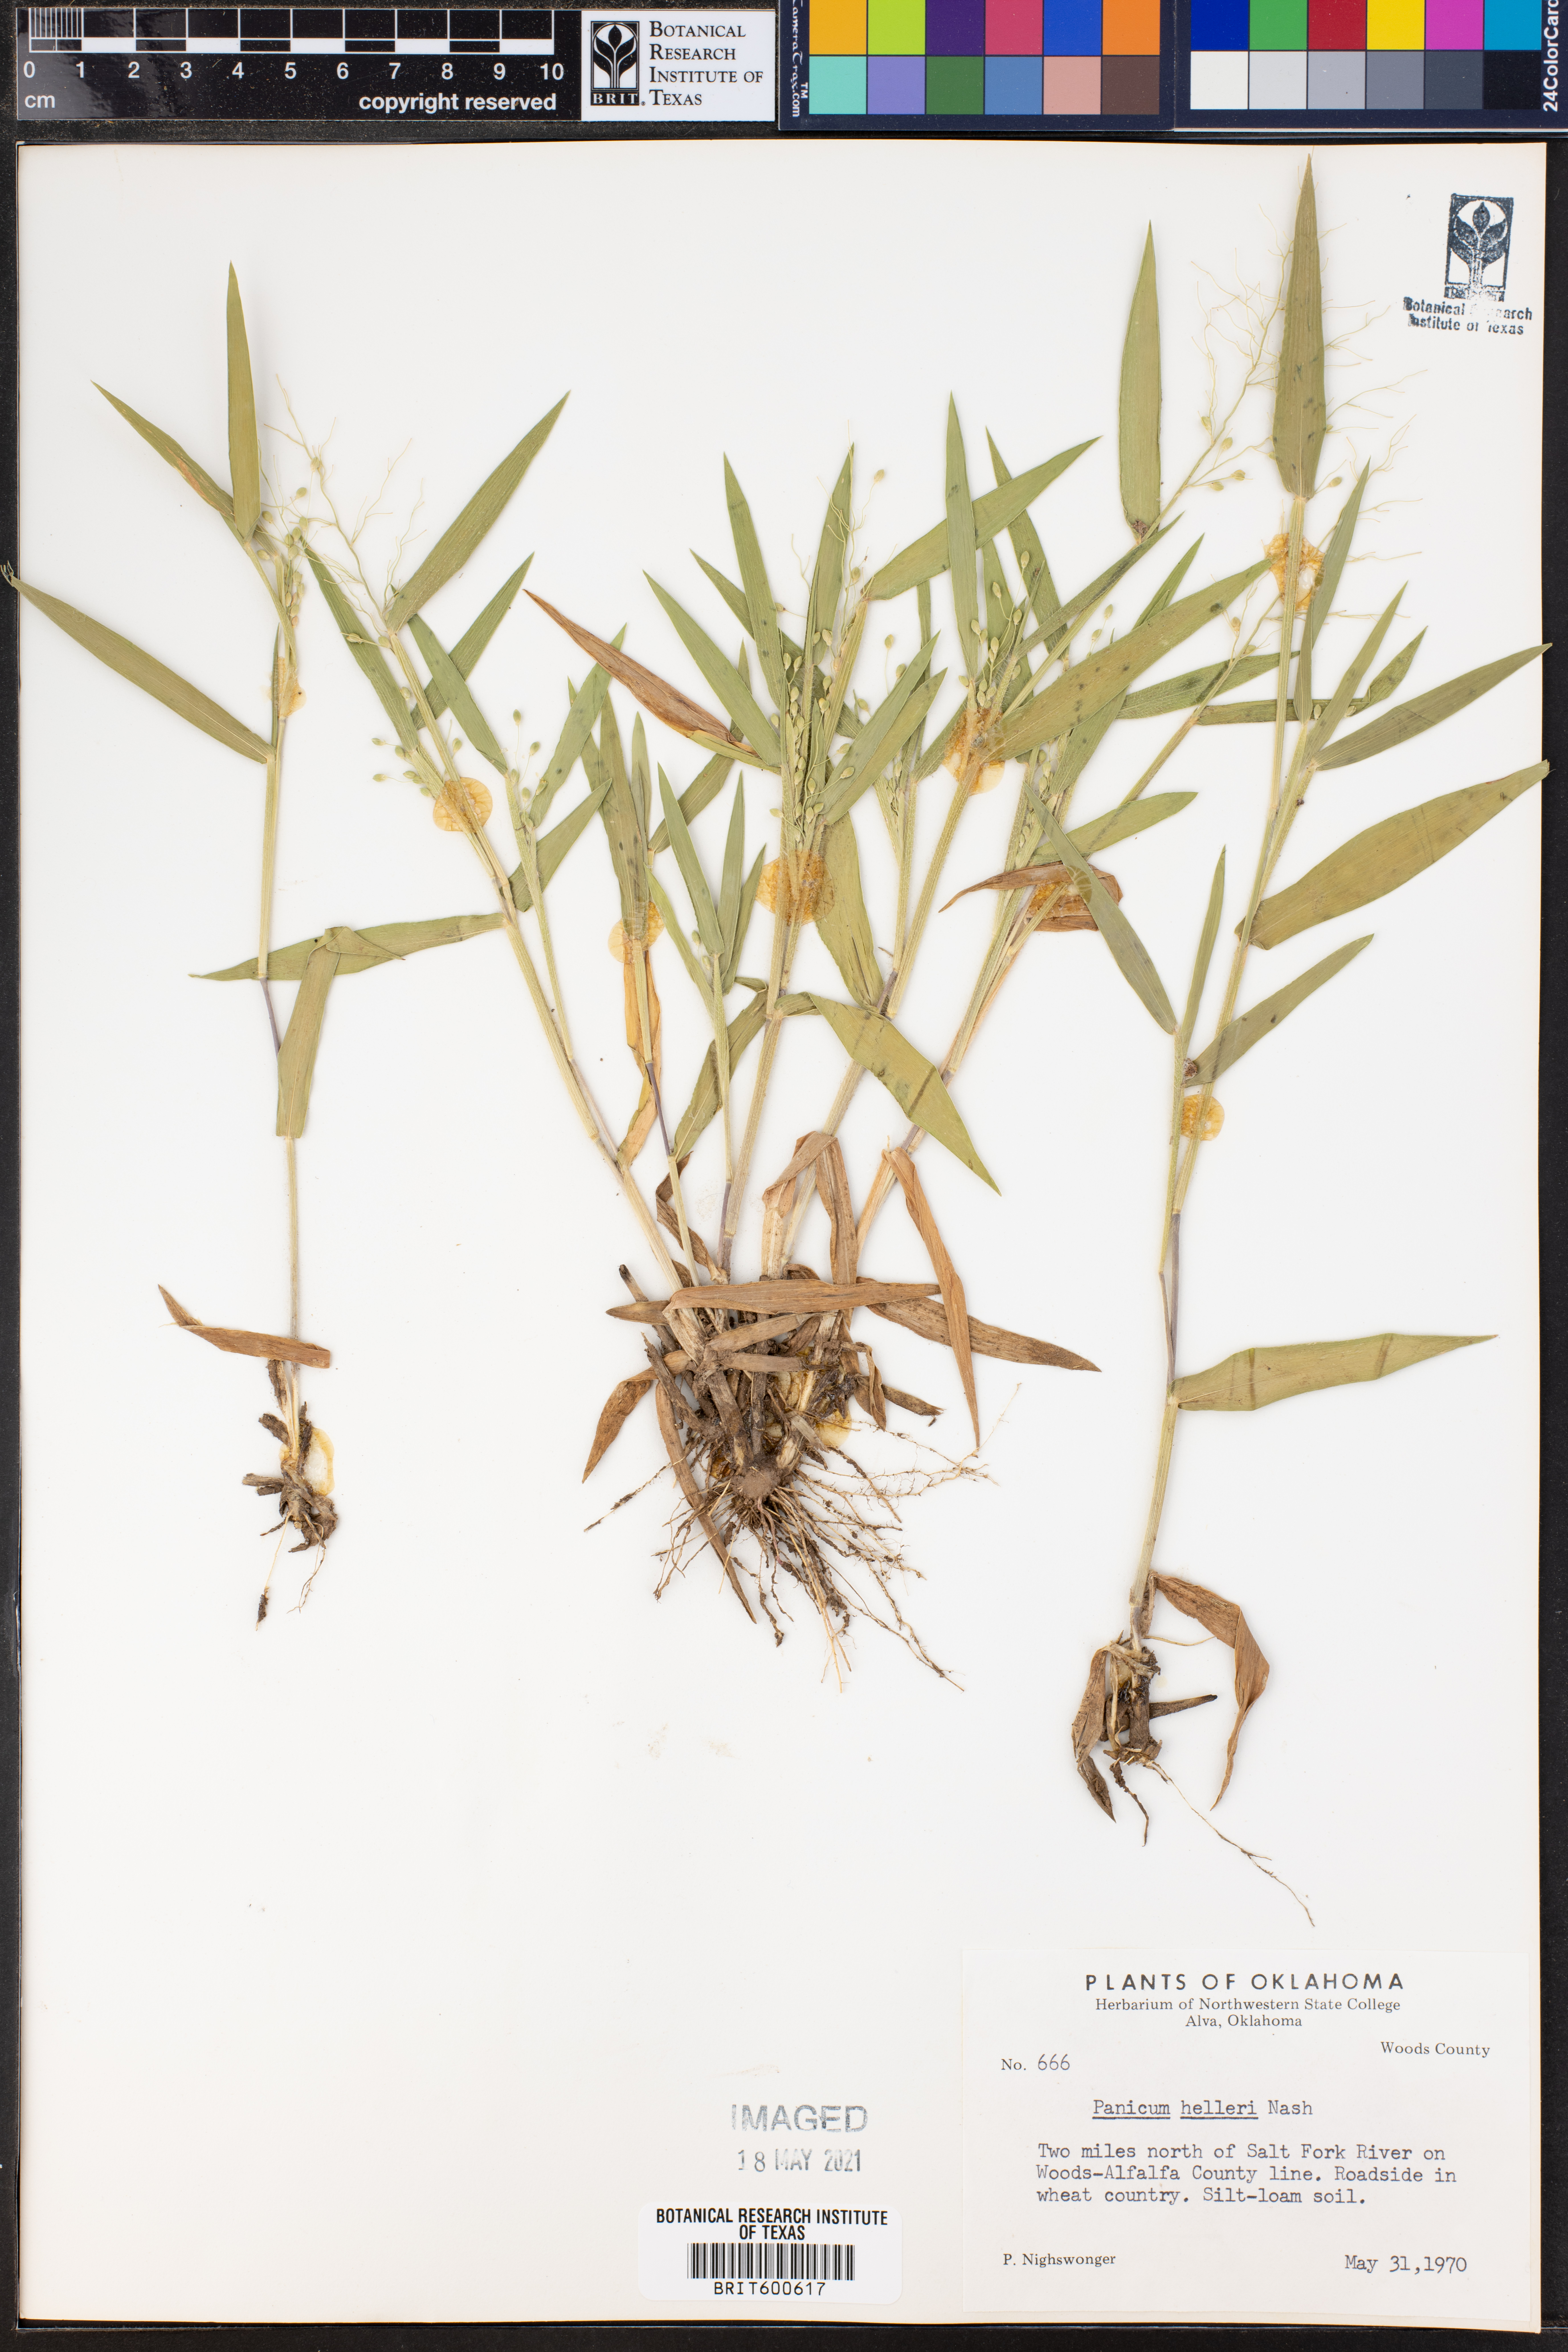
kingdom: Plantae
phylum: Tracheophyta
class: Liliopsida
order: Poales
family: Poaceae
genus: Dichanthelium
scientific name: Dichanthelium oligosanthes
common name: Few-anther obscuregrass
